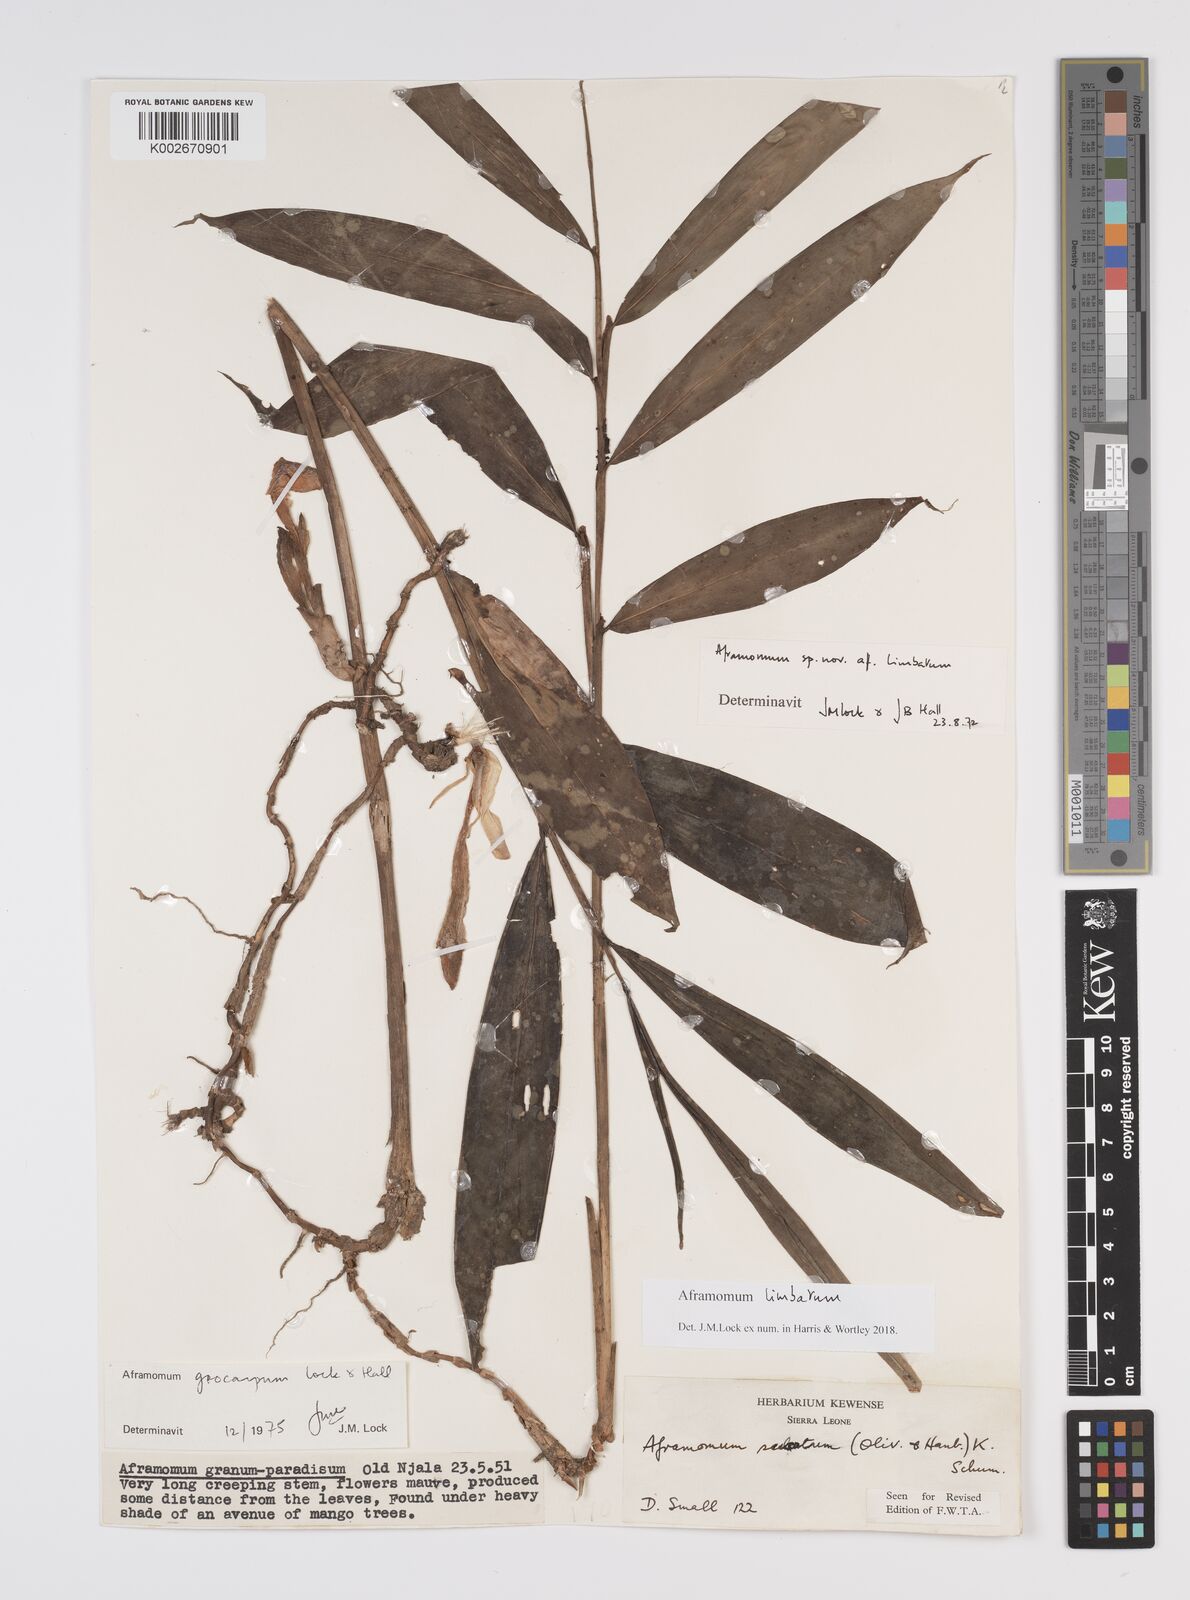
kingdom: Plantae
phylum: Tracheophyta
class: Liliopsida
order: Zingiberales
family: Zingiberaceae
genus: Aframomum
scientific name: Aframomum limbatum
